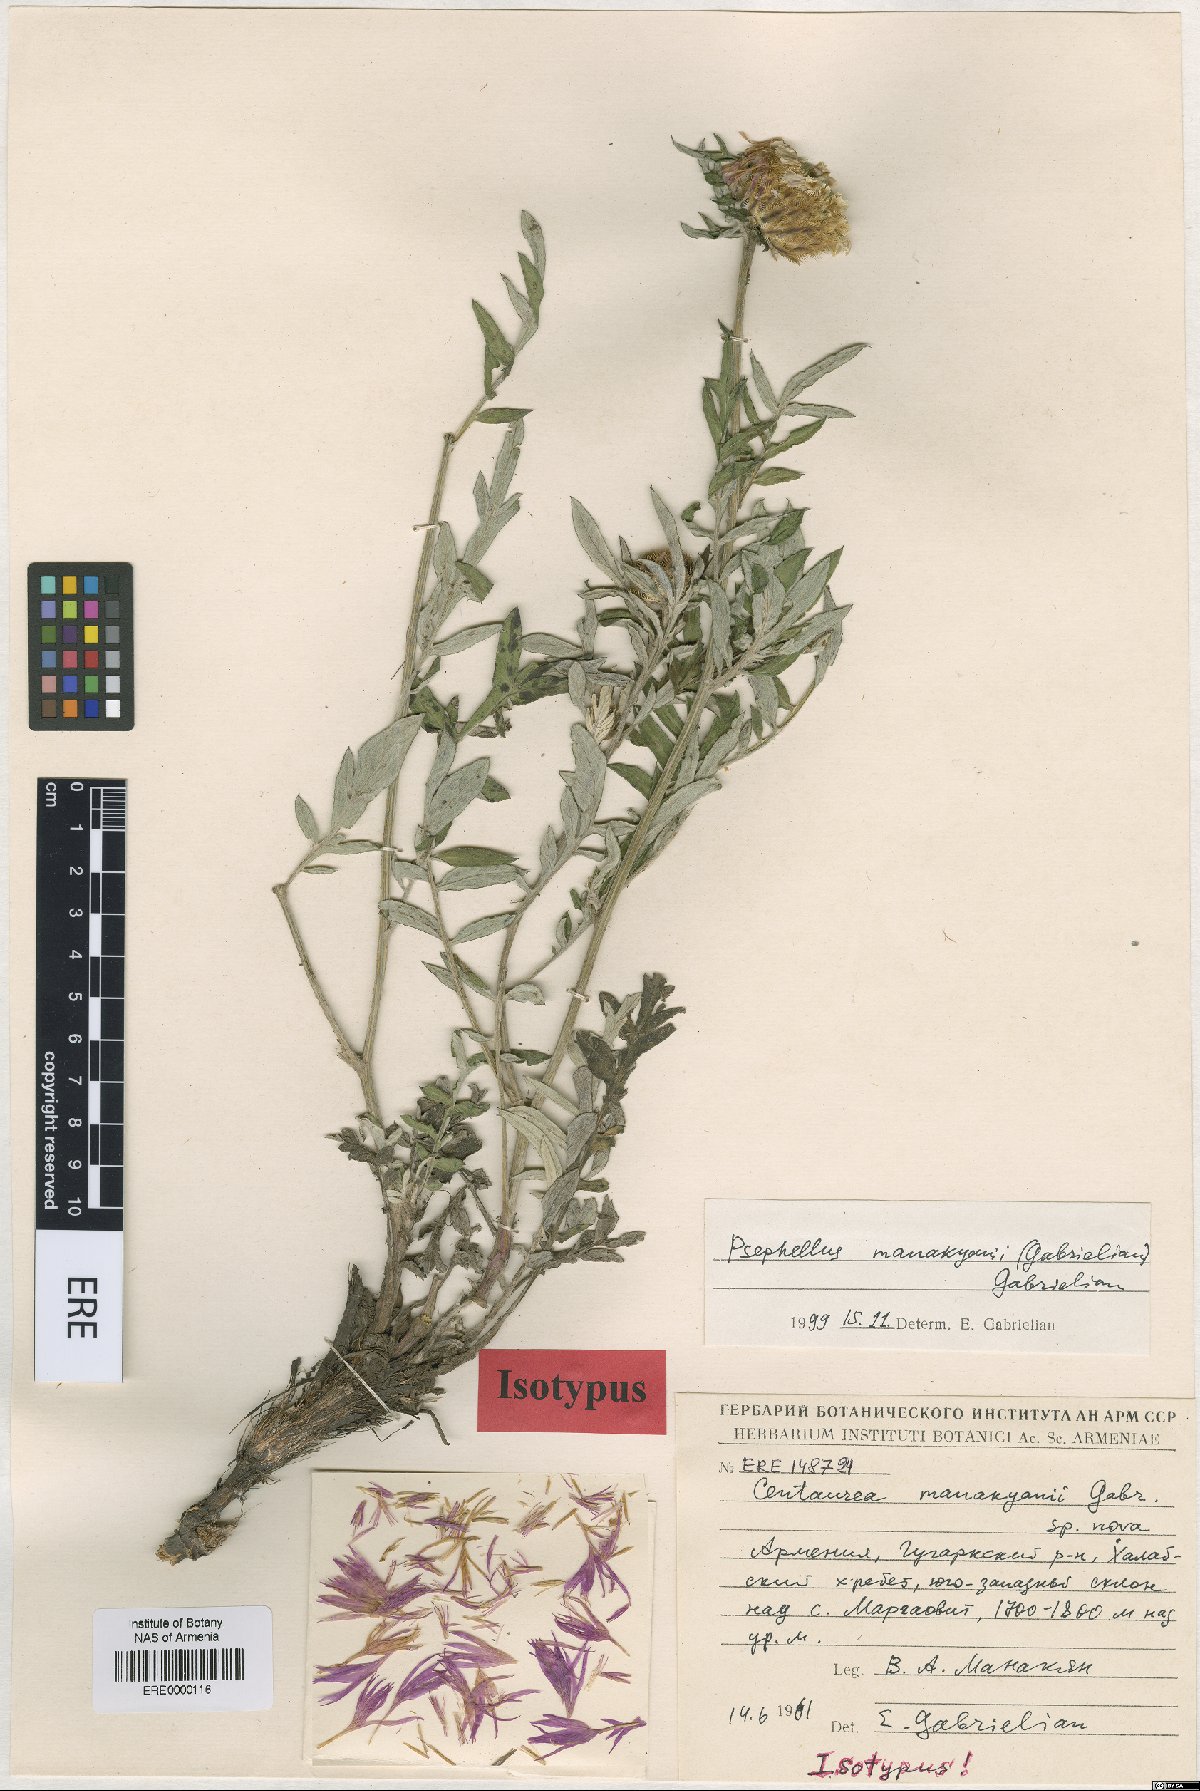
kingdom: Plantae
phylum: Tracheophyta
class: Magnoliopsida
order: Asterales
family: Asteraceae
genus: Psephellus
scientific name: Psephellus manakianii
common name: Manakyan's cornflower
